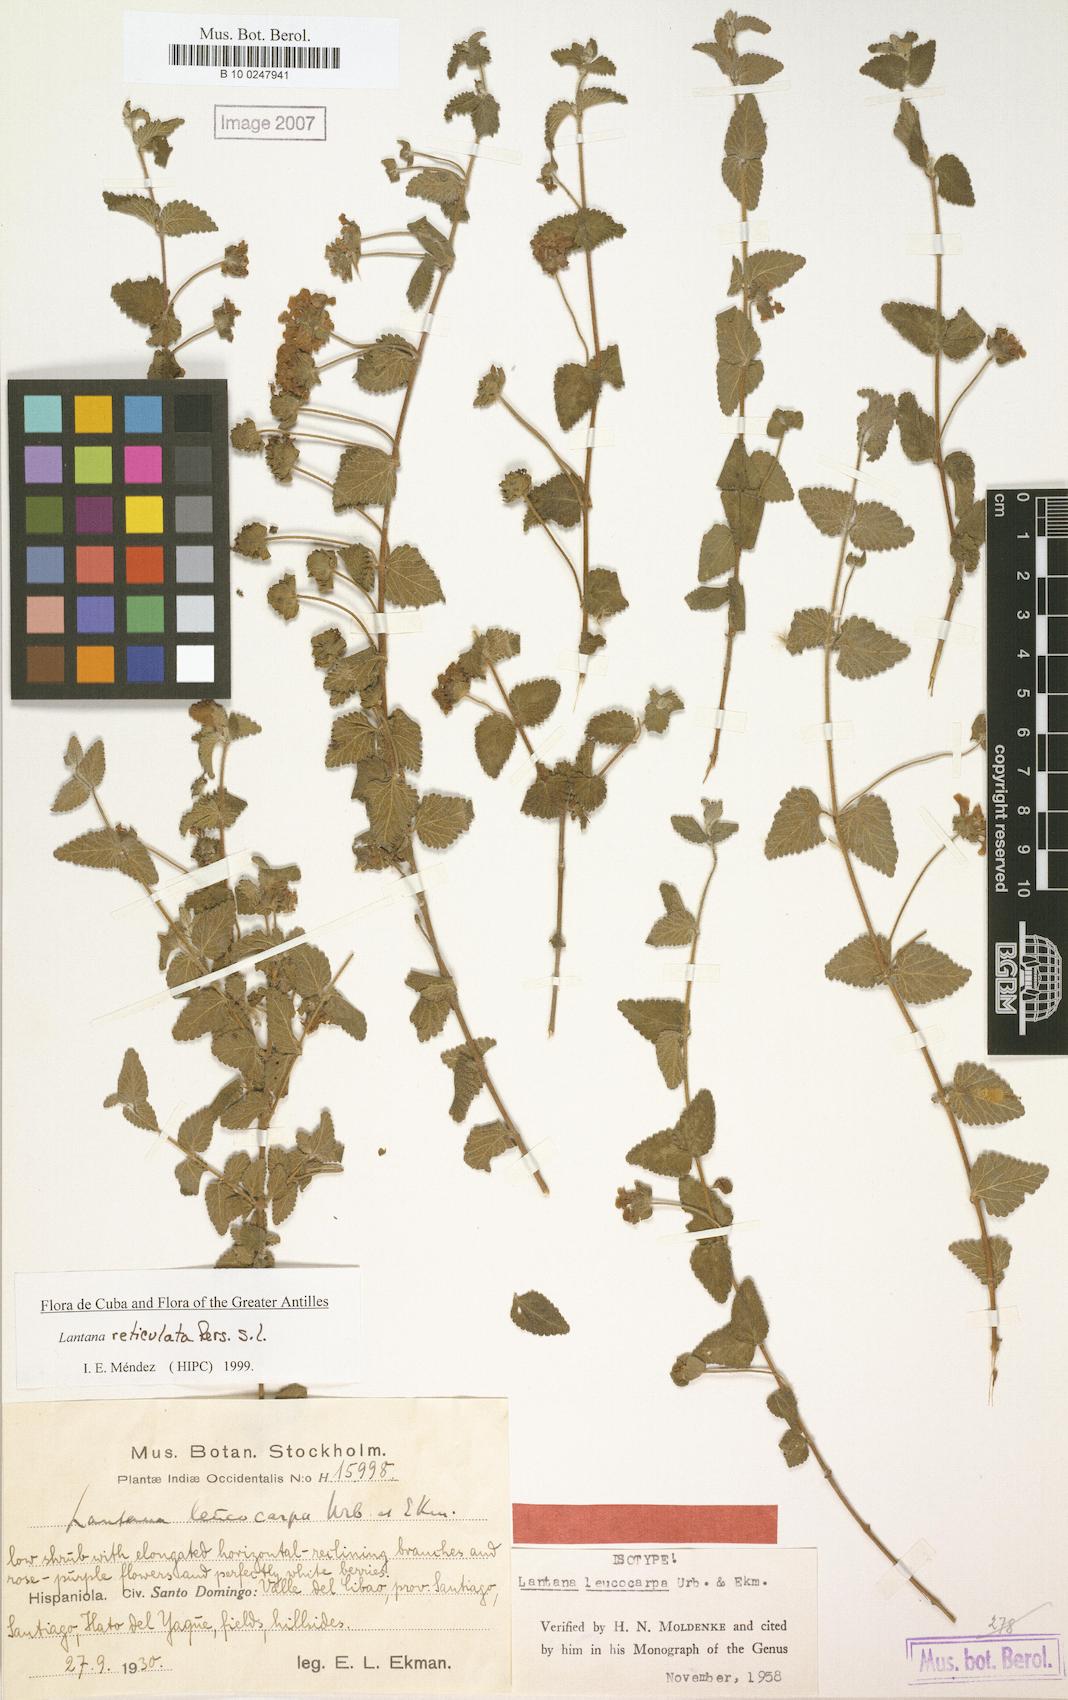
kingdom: Plantae
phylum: Tracheophyta
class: Magnoliopsida
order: Lamiales
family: Verbenaceae
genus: Lantana
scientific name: Lantana reticulata
